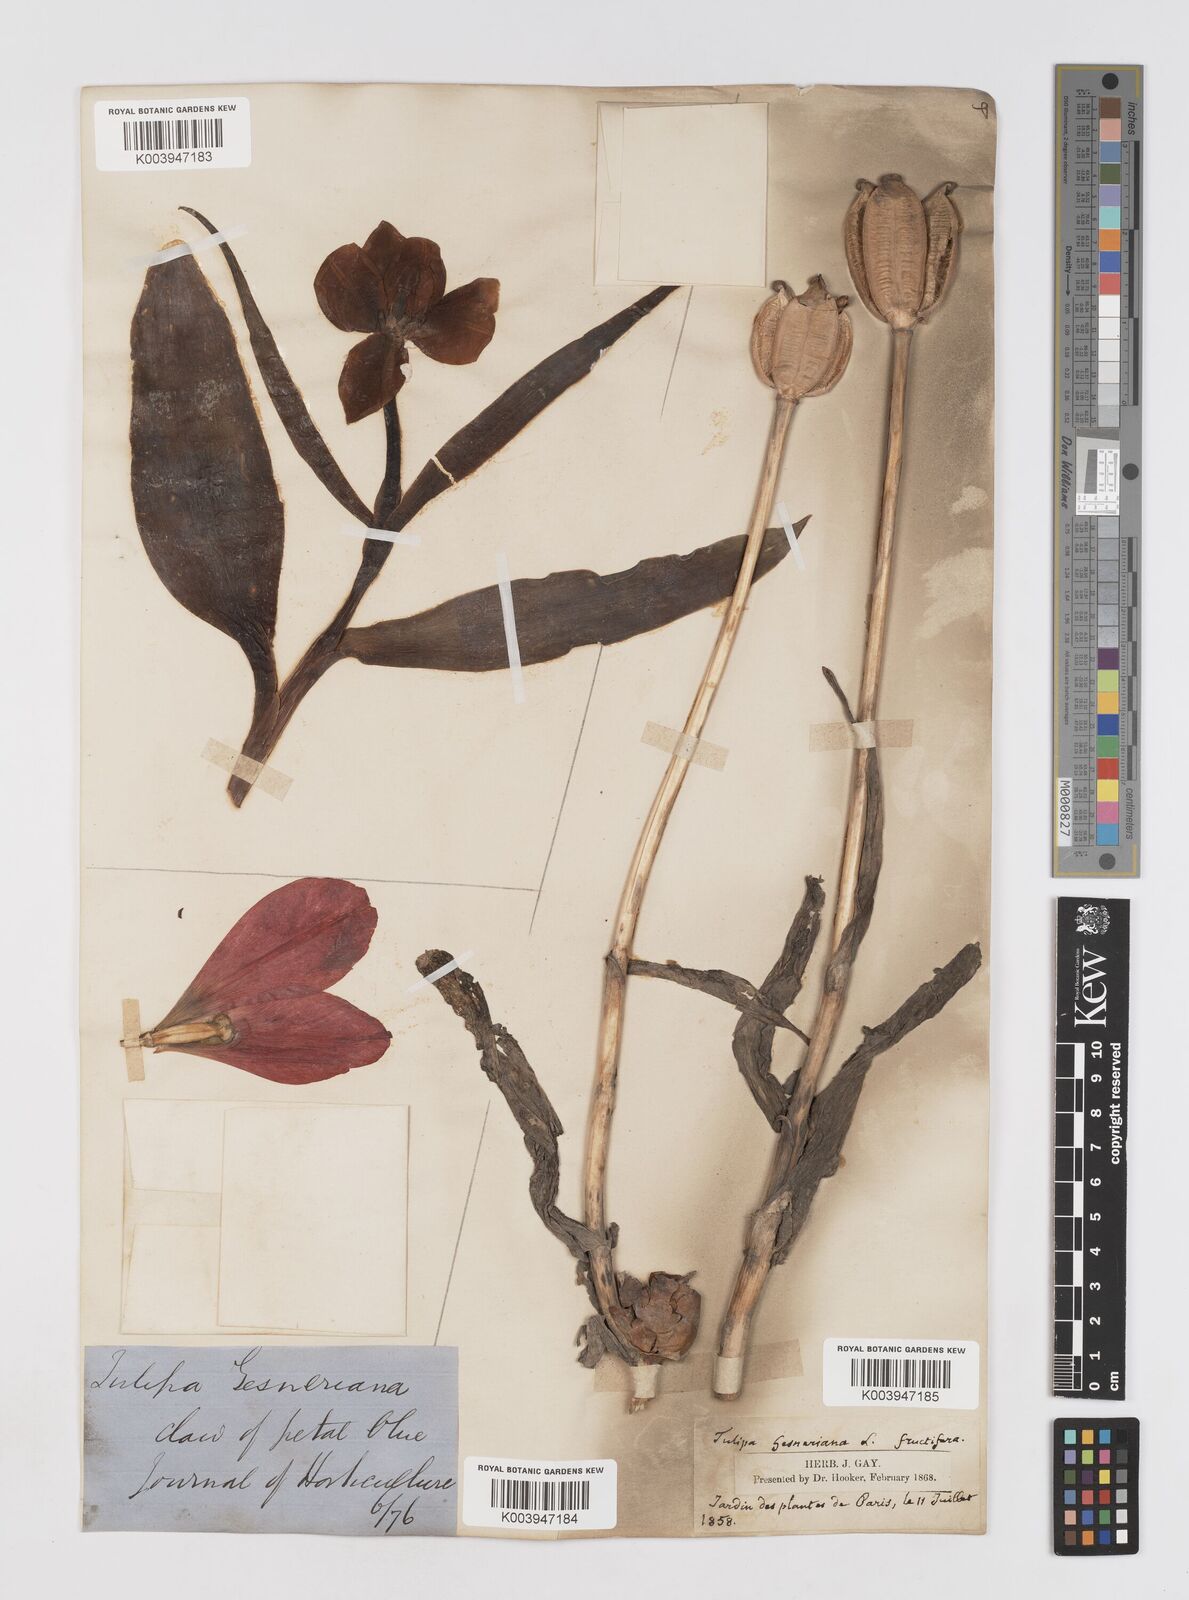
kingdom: Plantae
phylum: Tracheophyta
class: Liliopsida
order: Liliales
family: Liliaceae
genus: Tulipa
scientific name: Tulipa gesneriana
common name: Garden tulip
